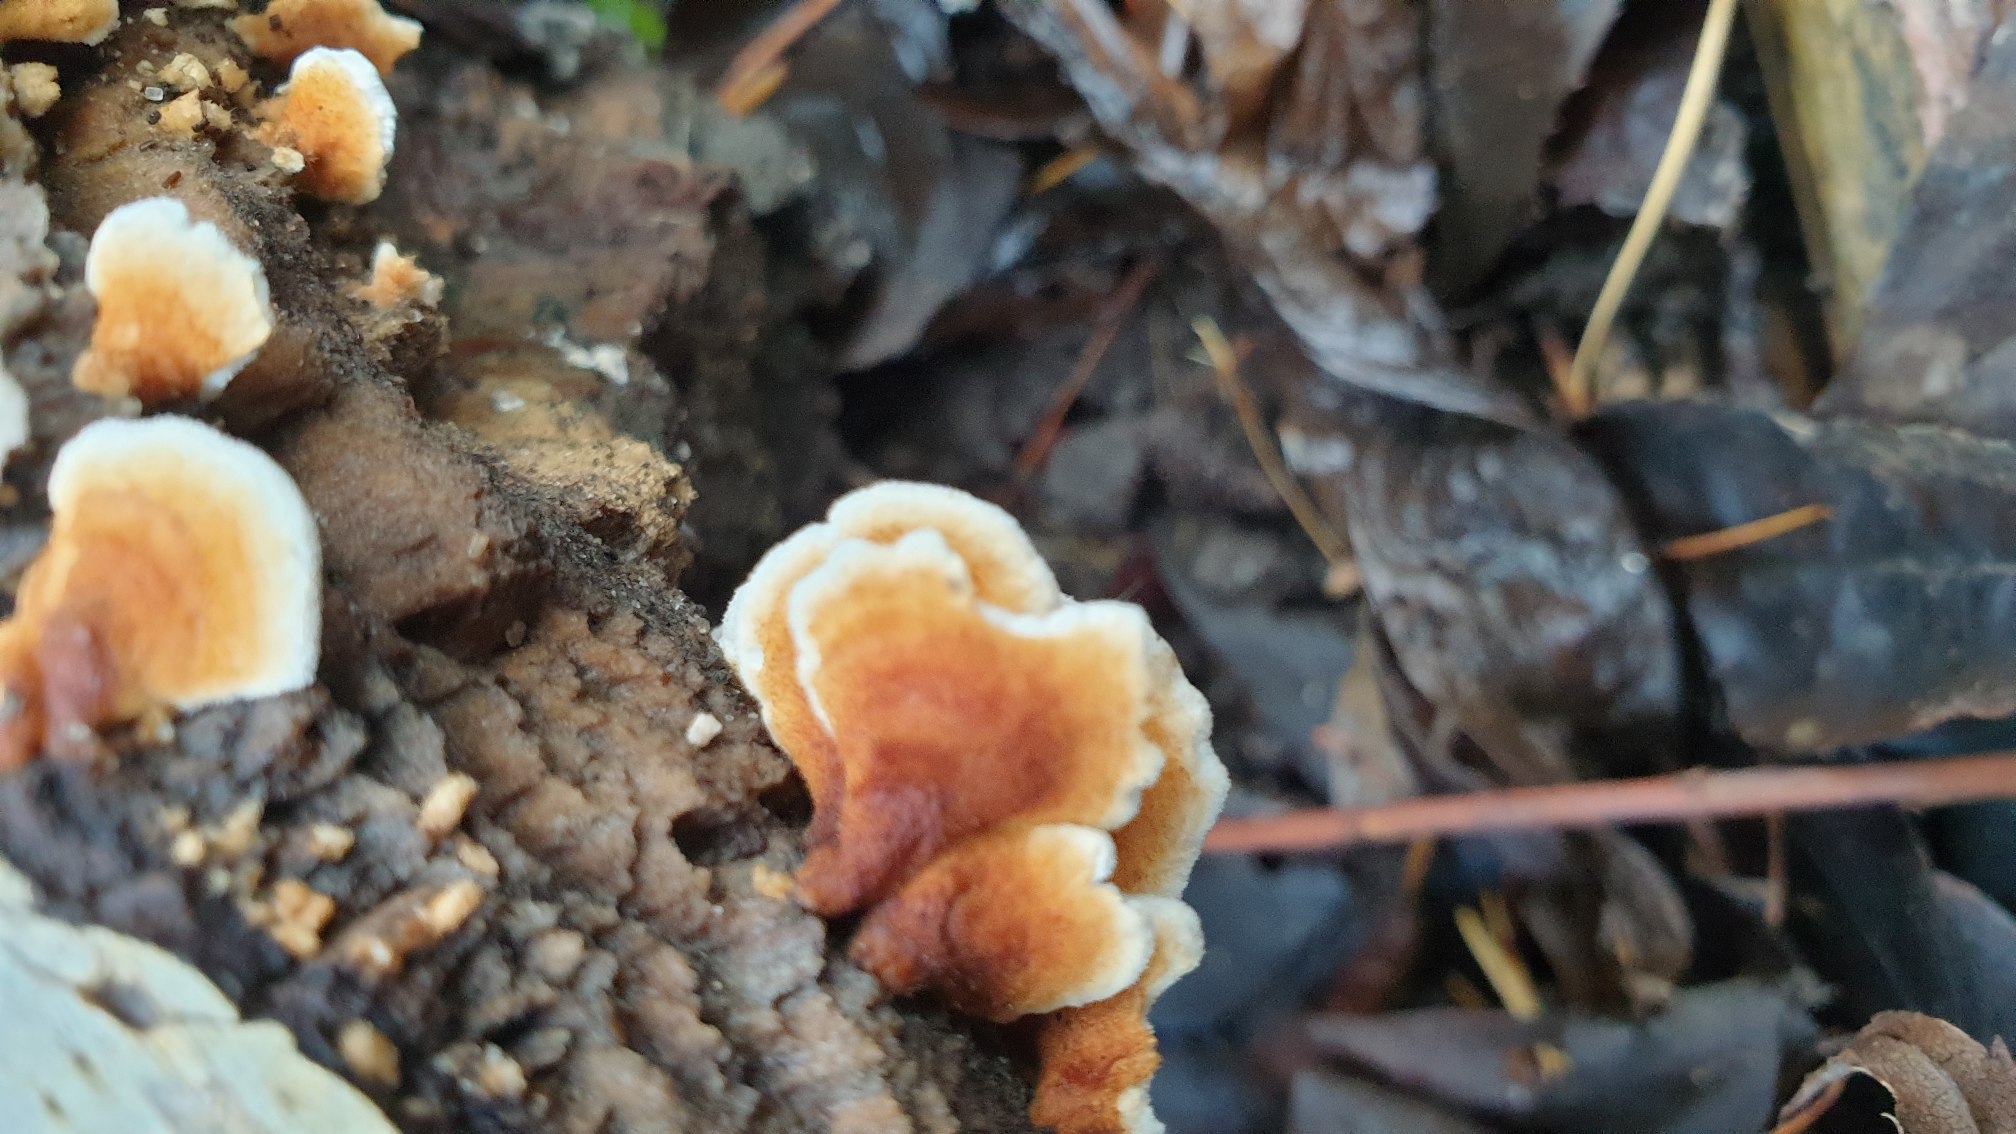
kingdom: Fungi
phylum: Basidiomycota
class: Agaricomycetes
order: Amylocorticiales
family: Amylocorticiaceae
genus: Plicaturopsis
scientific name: Plicaturopsis crispa
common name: Krusblad
